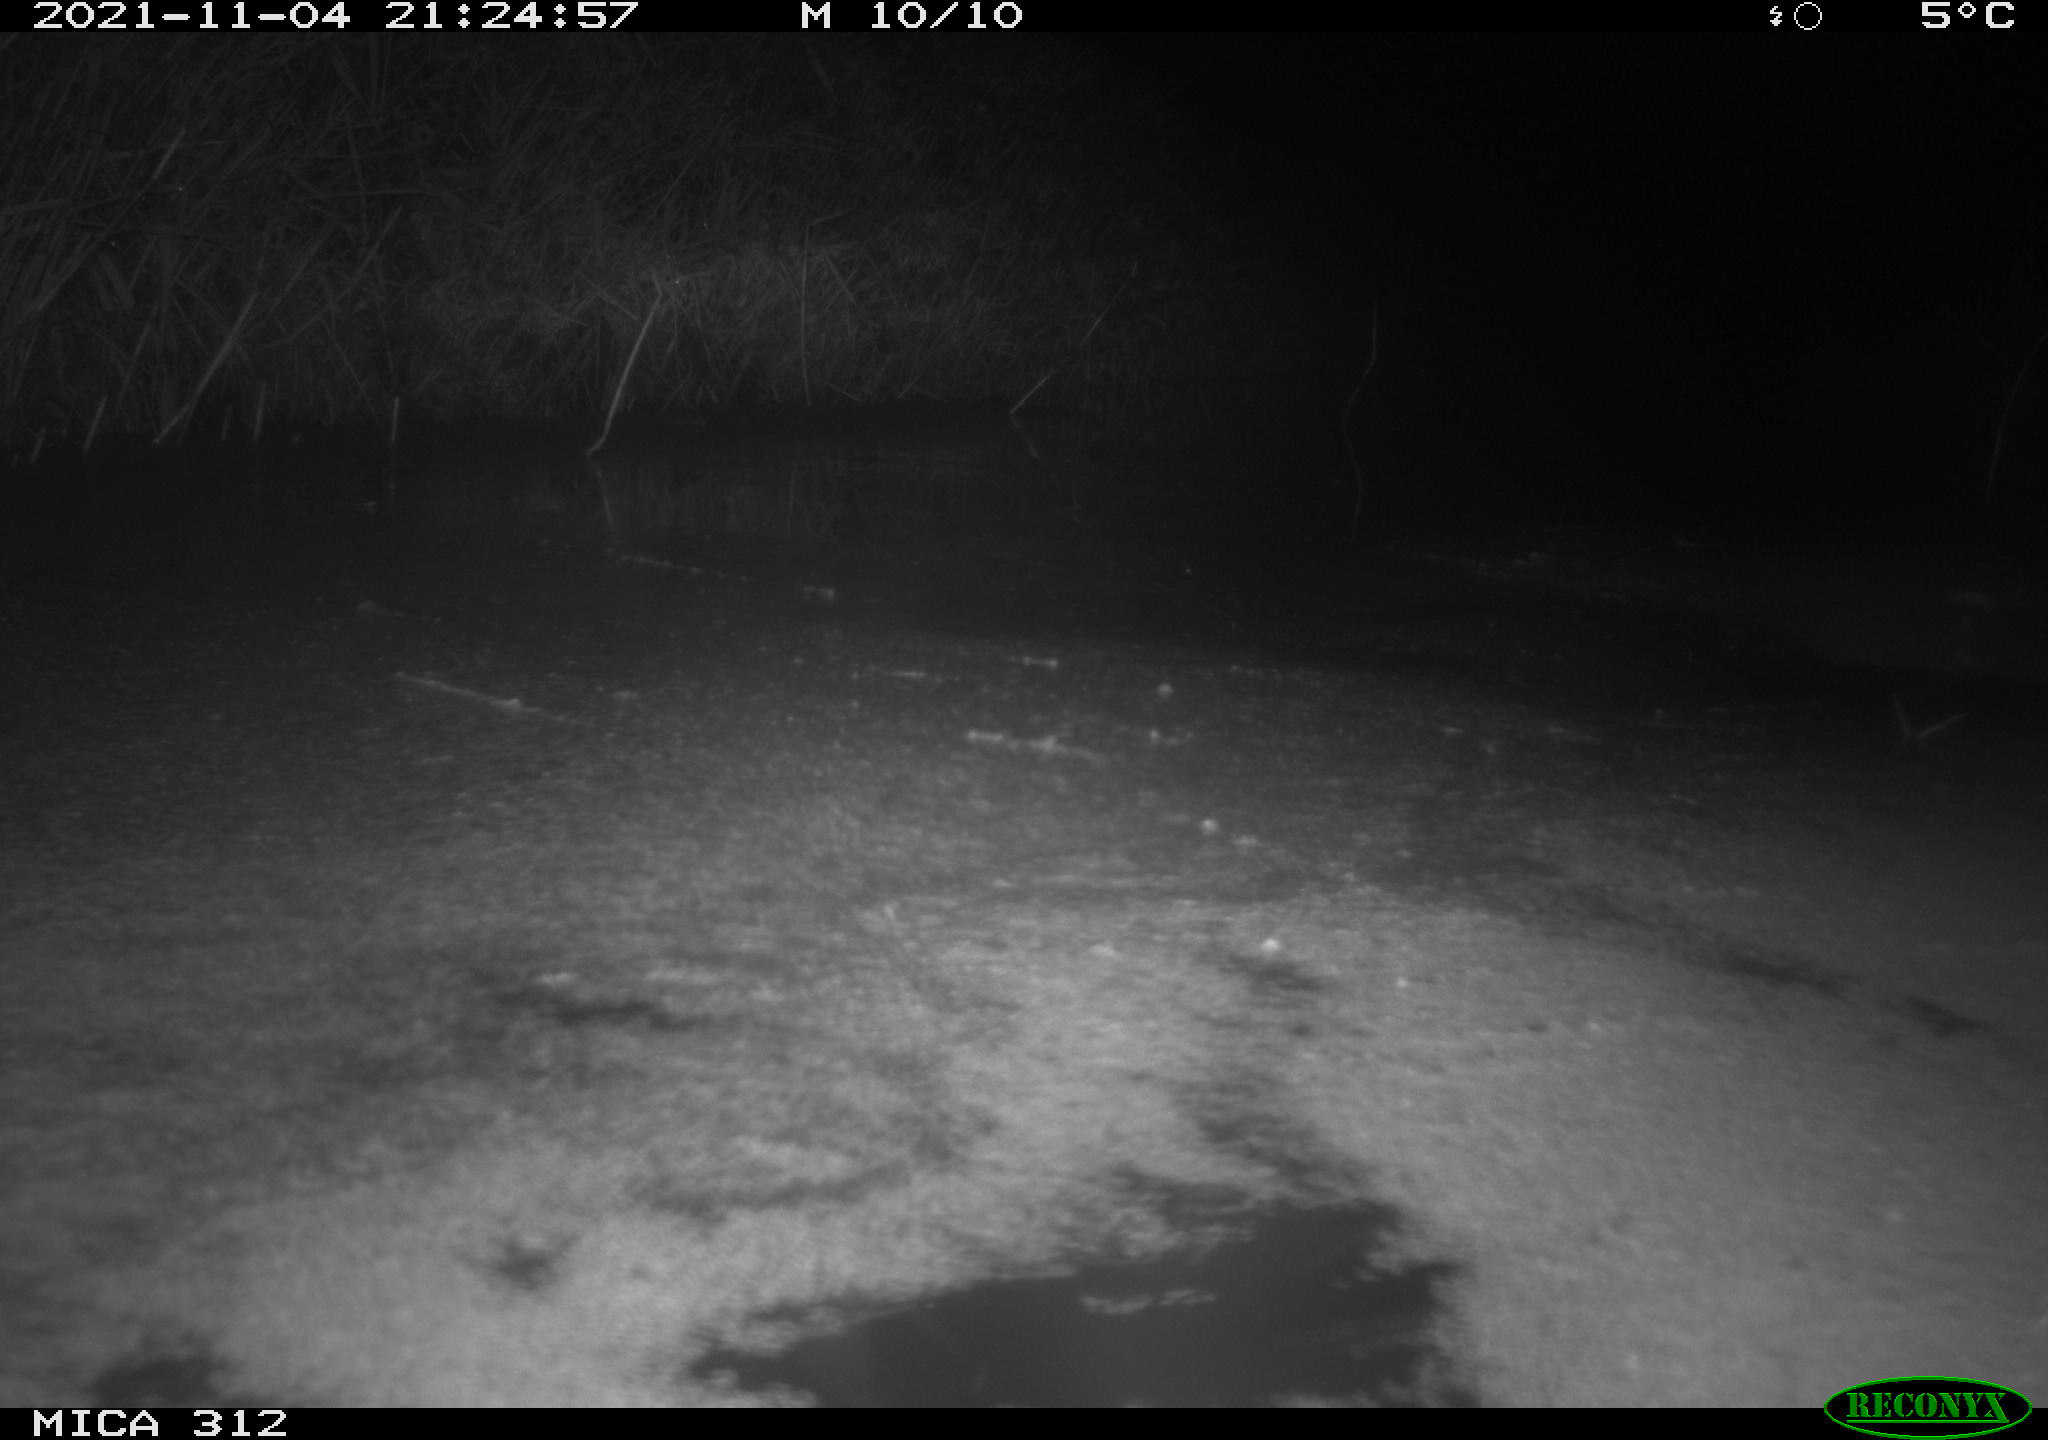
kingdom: Animalia
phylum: Chordata
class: Aves
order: Anseriformes
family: Anatidae
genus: Anas
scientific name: Anas
